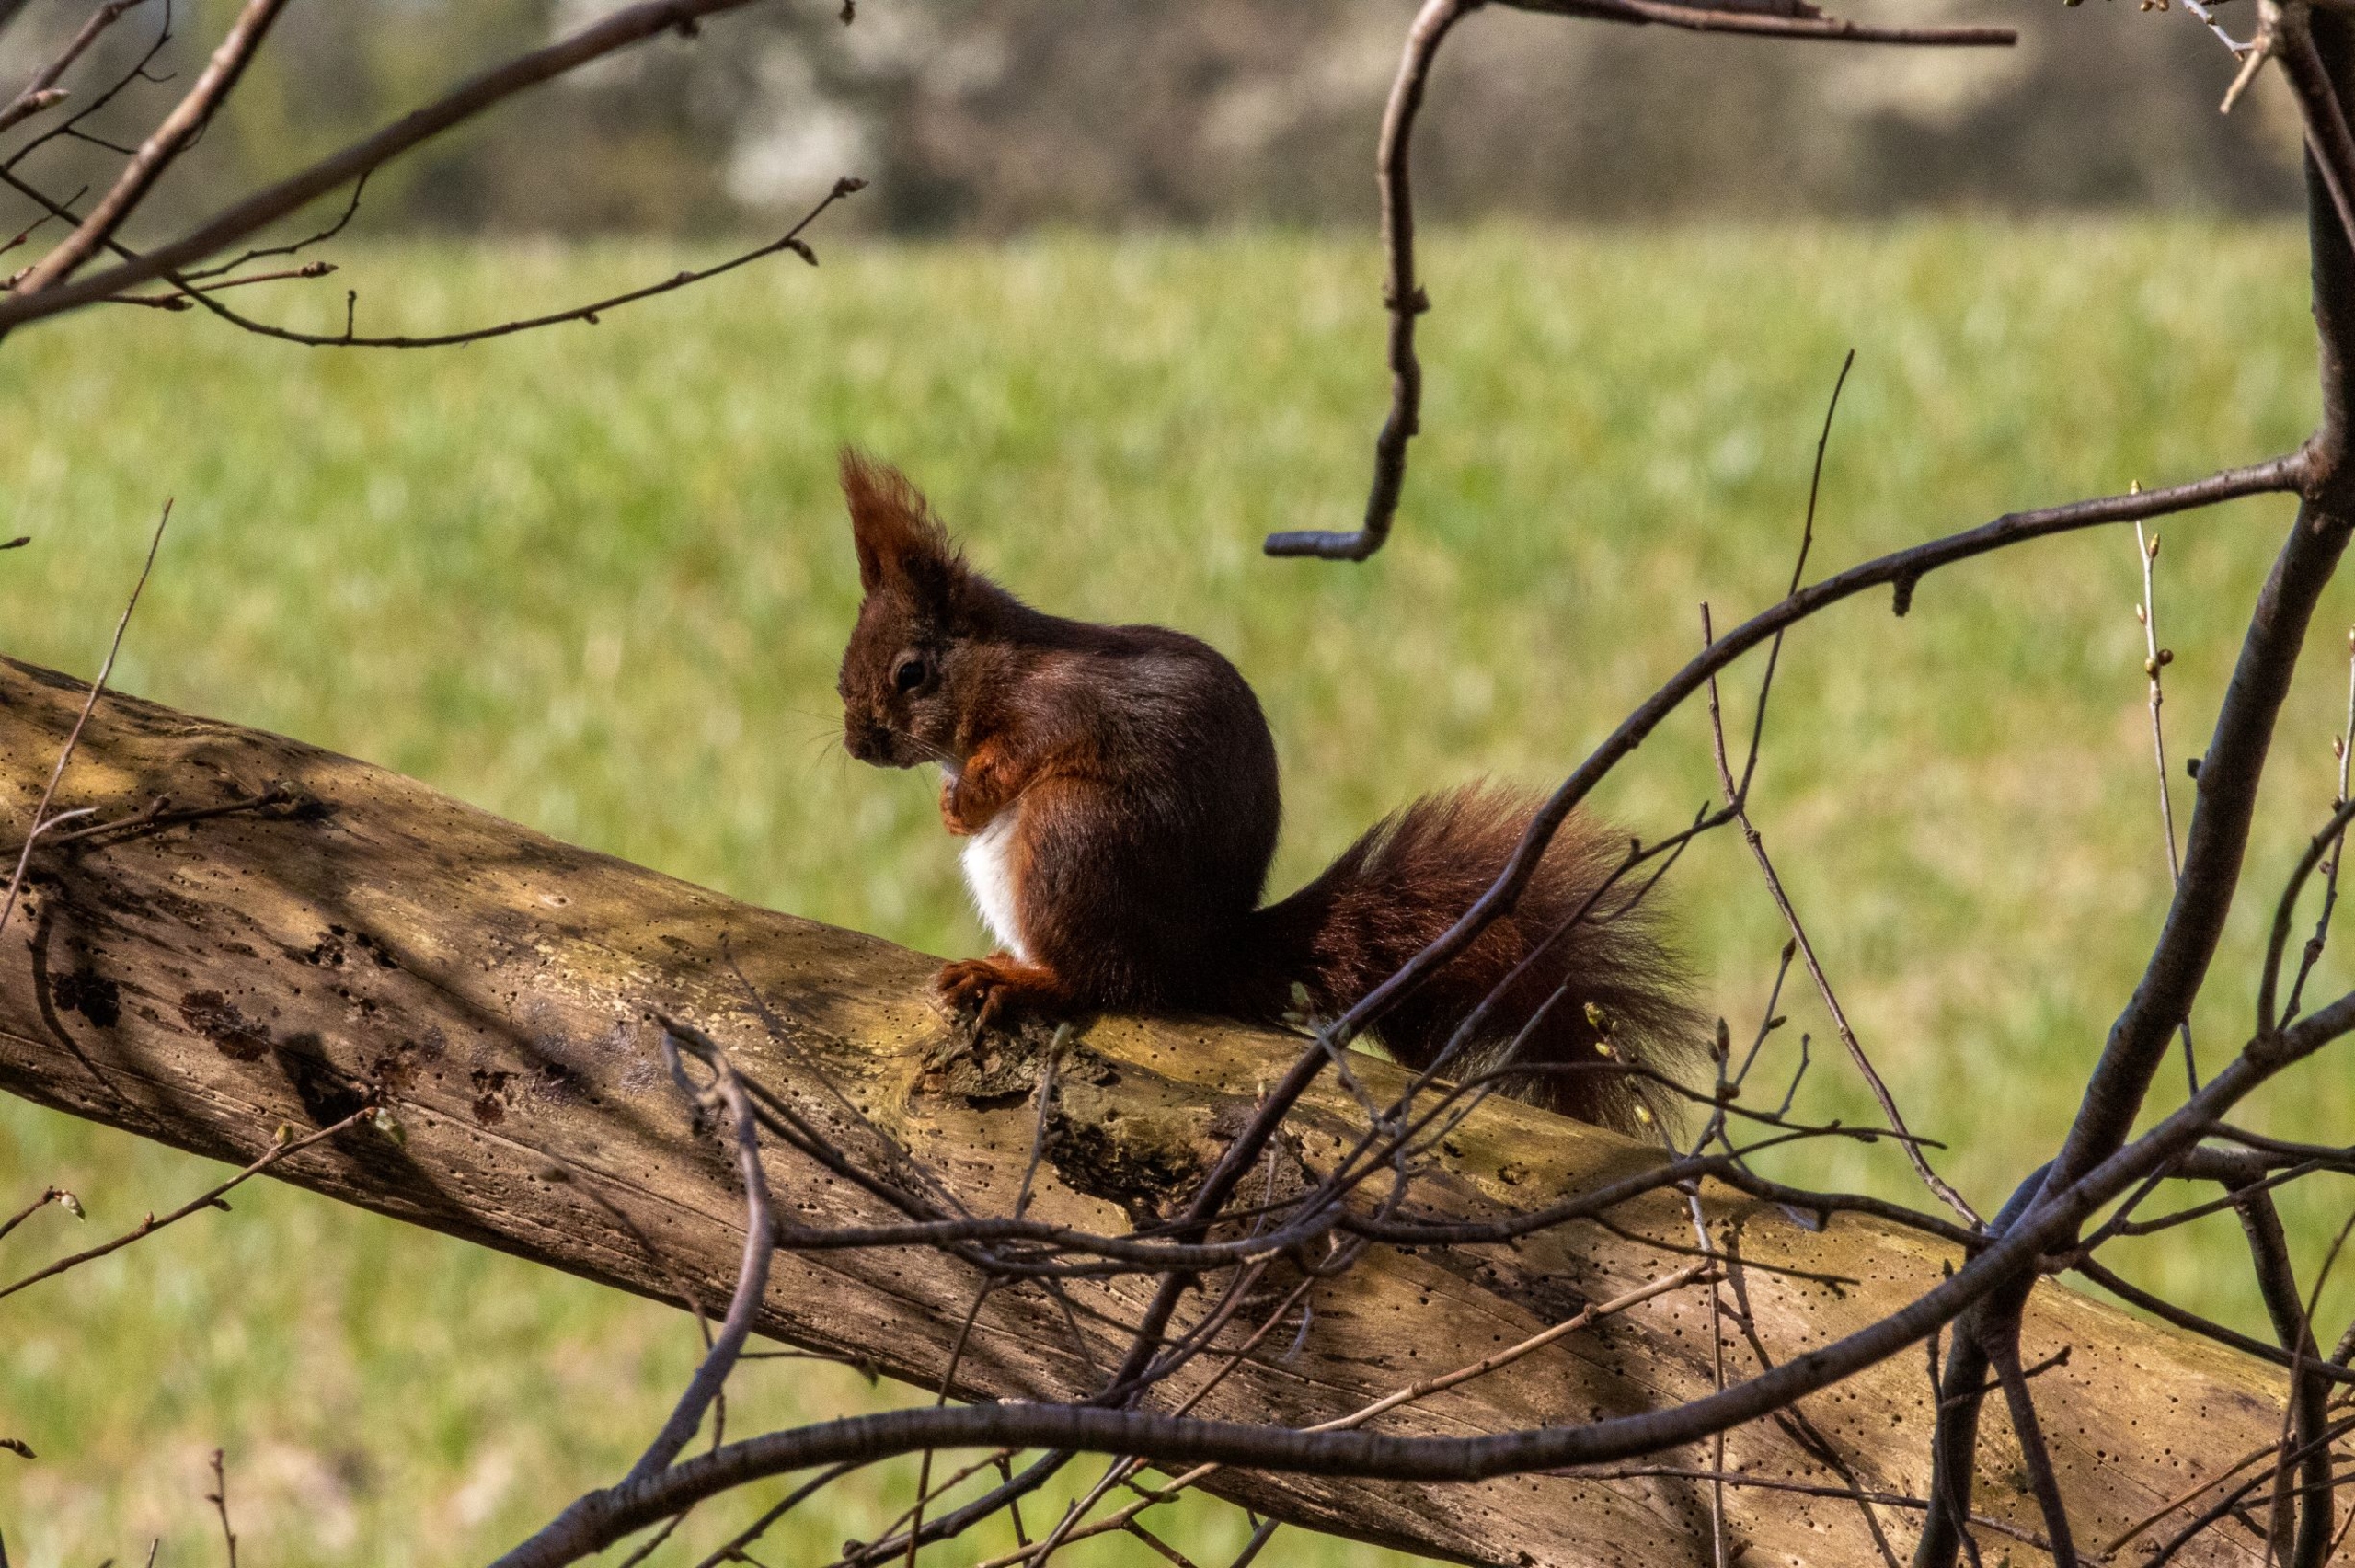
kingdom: Animalia
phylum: Chordata
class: Mammalia
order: Rodentia
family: Sciuridae
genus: Sciurus
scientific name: Sciurus vulgaris
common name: Egern
